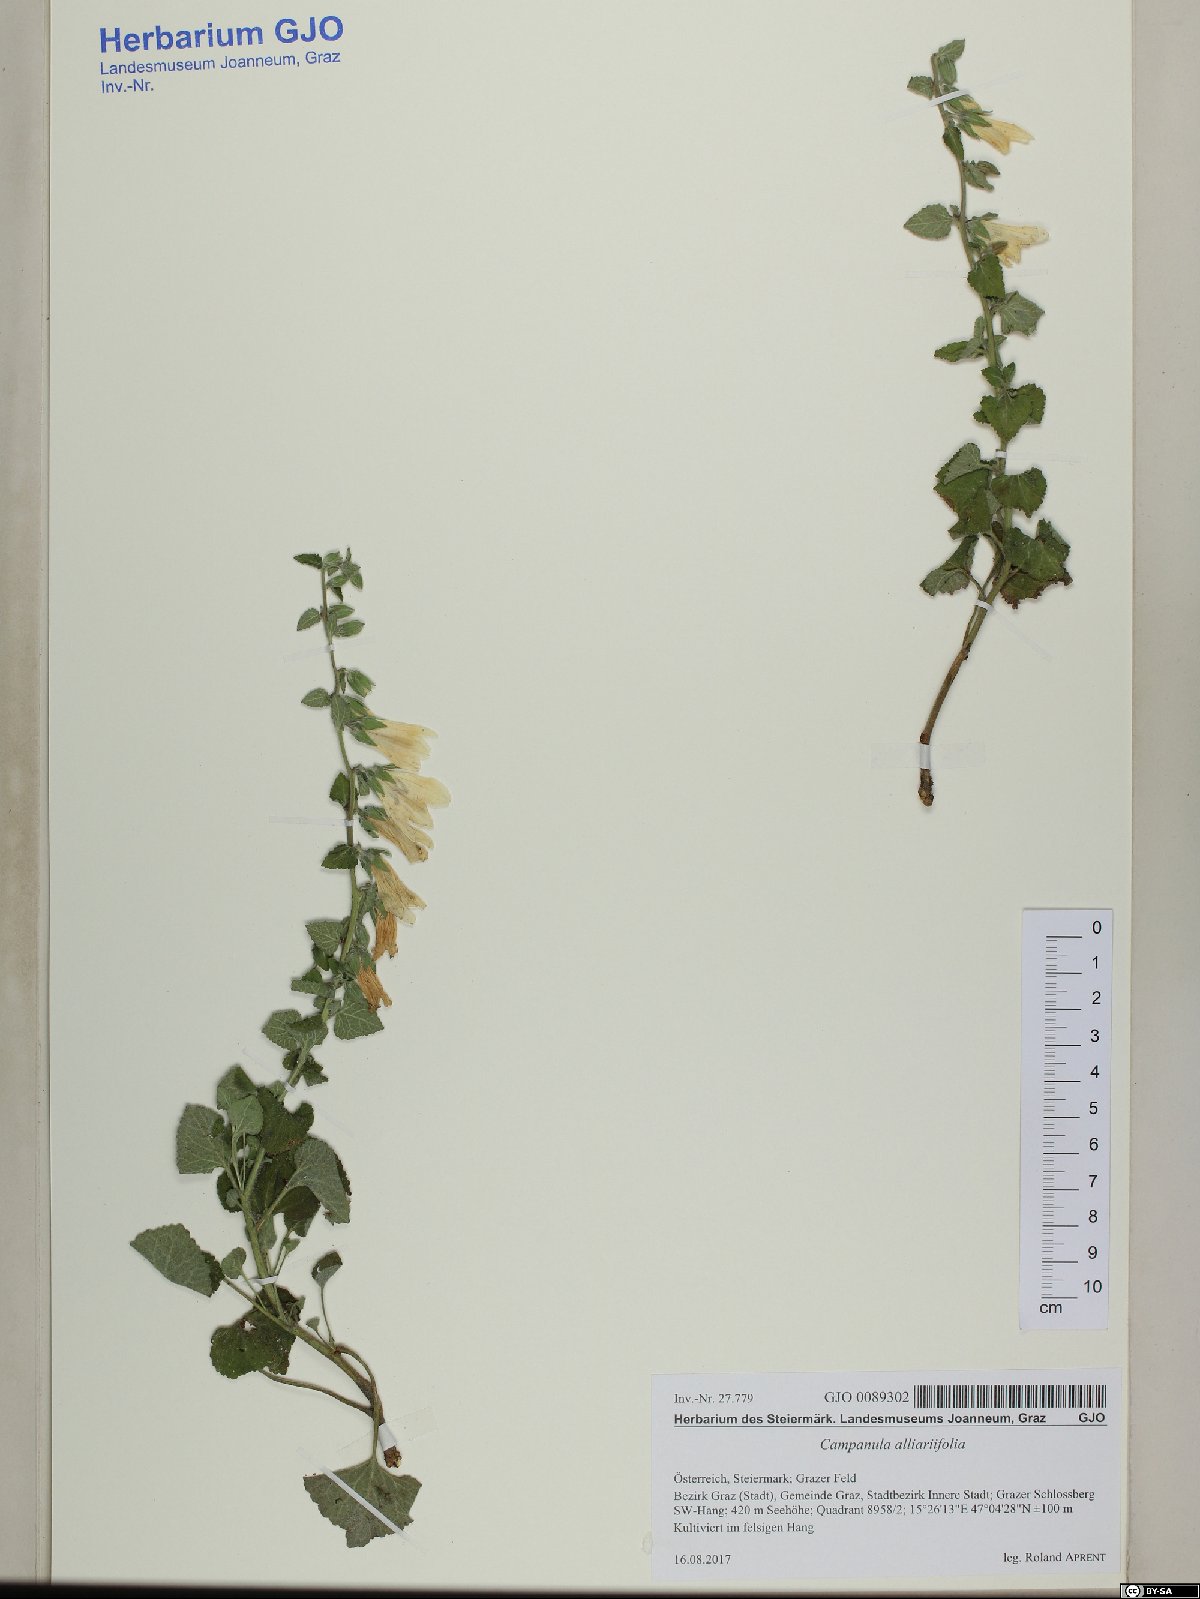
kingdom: Plantae
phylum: Tracheophyta
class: Magnoliopsida
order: Asterales
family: Campanulaceae
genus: Campanula
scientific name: Campanula alliariifolia
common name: Cornish bellflower
